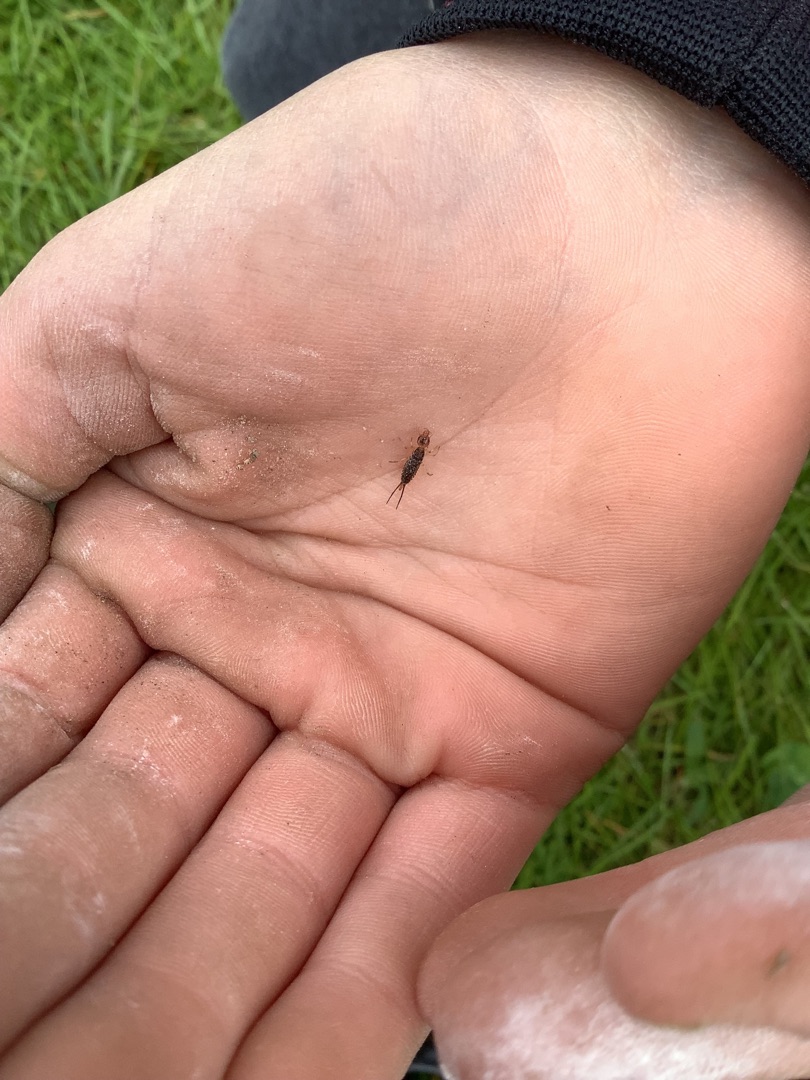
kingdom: Animalia
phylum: Arthropoda
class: Insecta
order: Dermaptera
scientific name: Dermaptera
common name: Ørentviste
